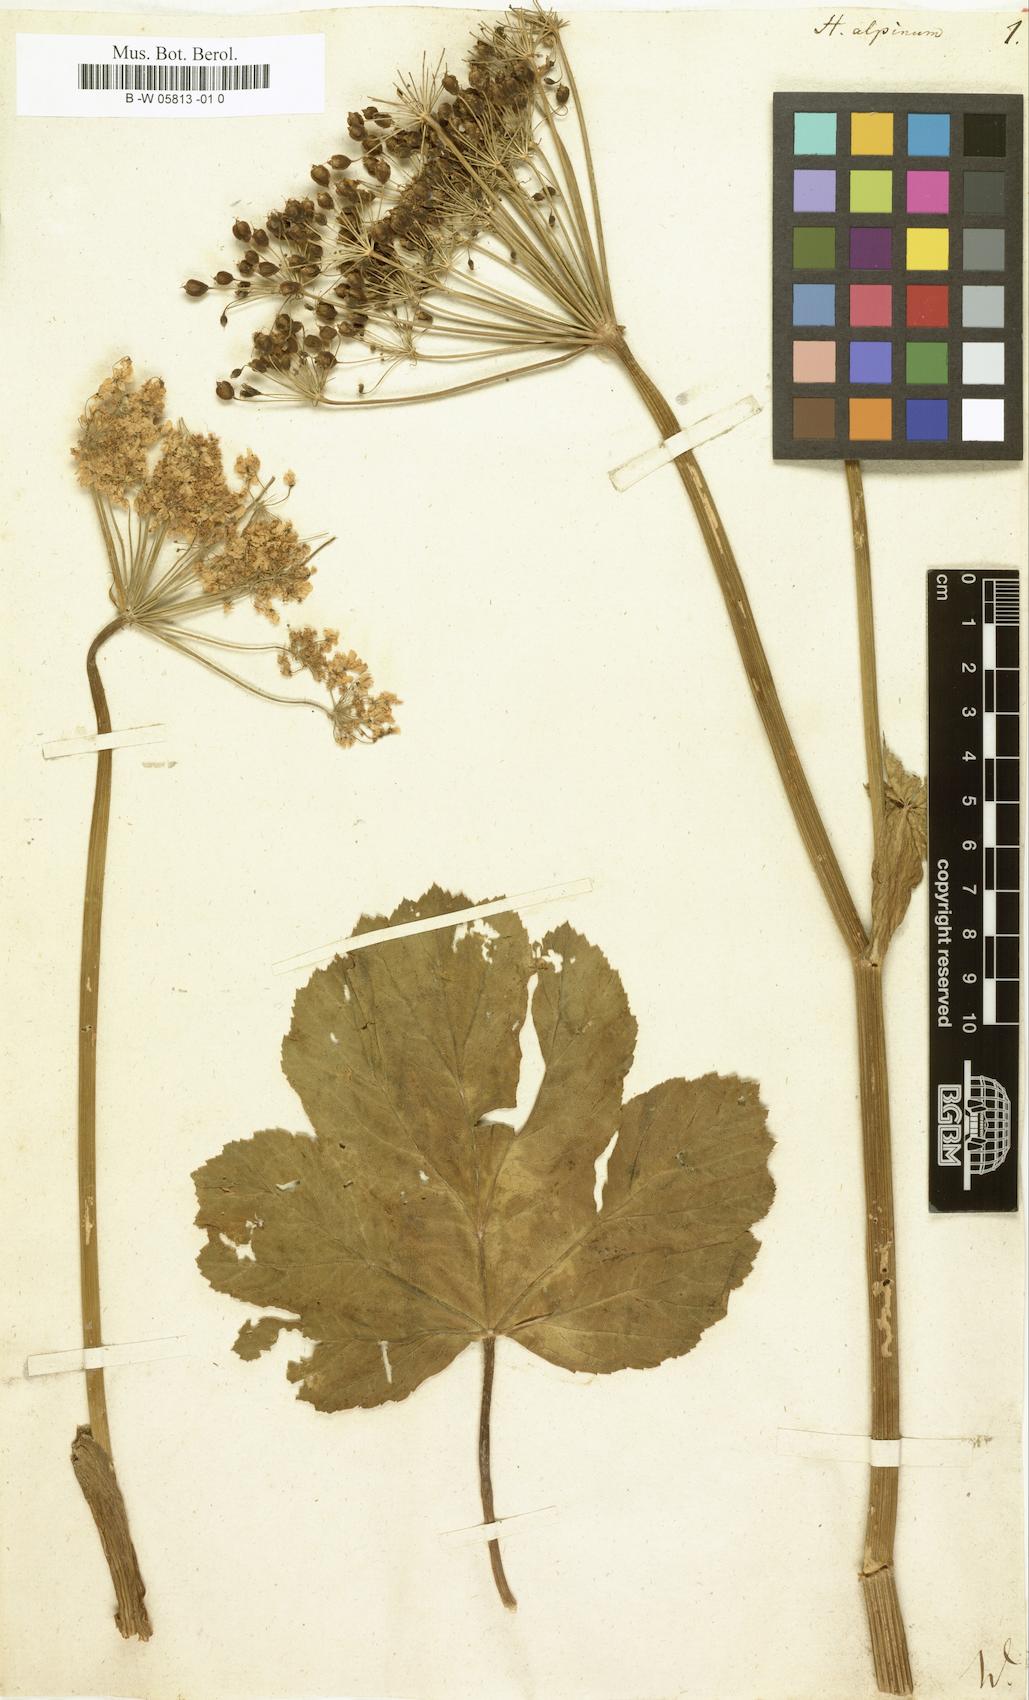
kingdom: Plantae
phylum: Tracheophyta
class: Magnoliopsida
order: Apiales
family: Apiaceae
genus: Heracleum
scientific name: Heracleum alpinum
